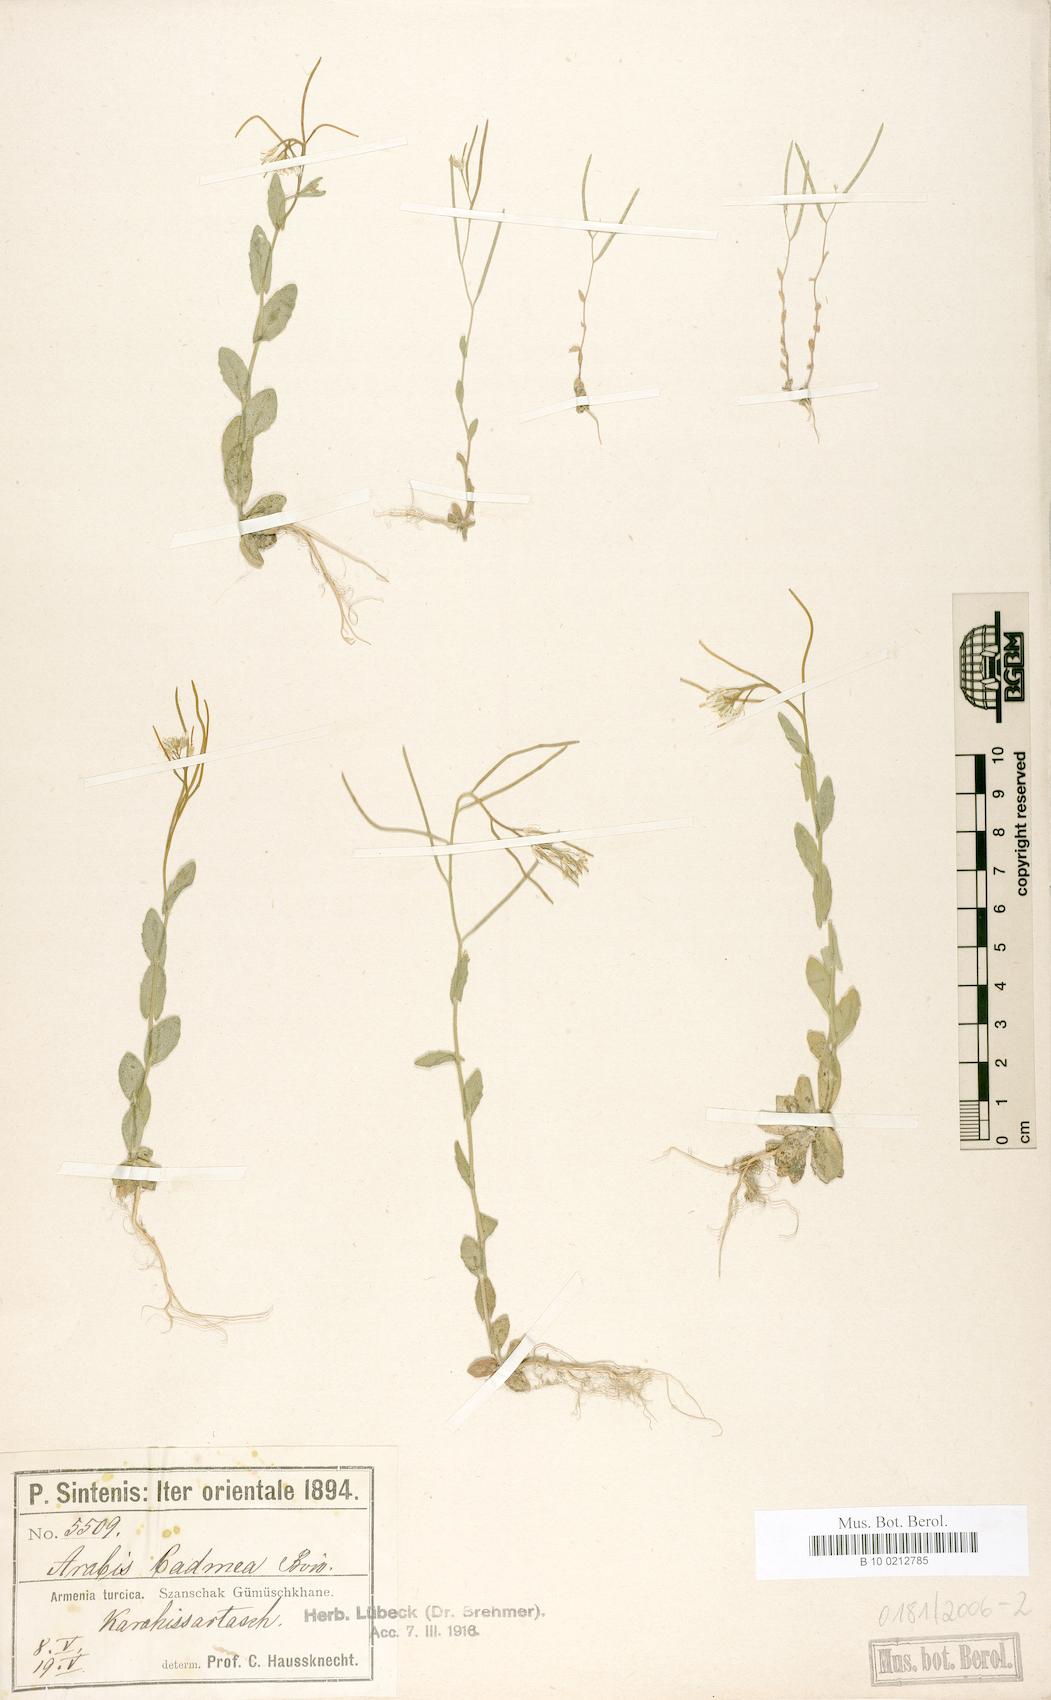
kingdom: Plantae
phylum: Tracheophyta
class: Magnoliopsida
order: Brassicales
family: Brassicaceae
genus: Arabis
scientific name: Arabis auriculata
